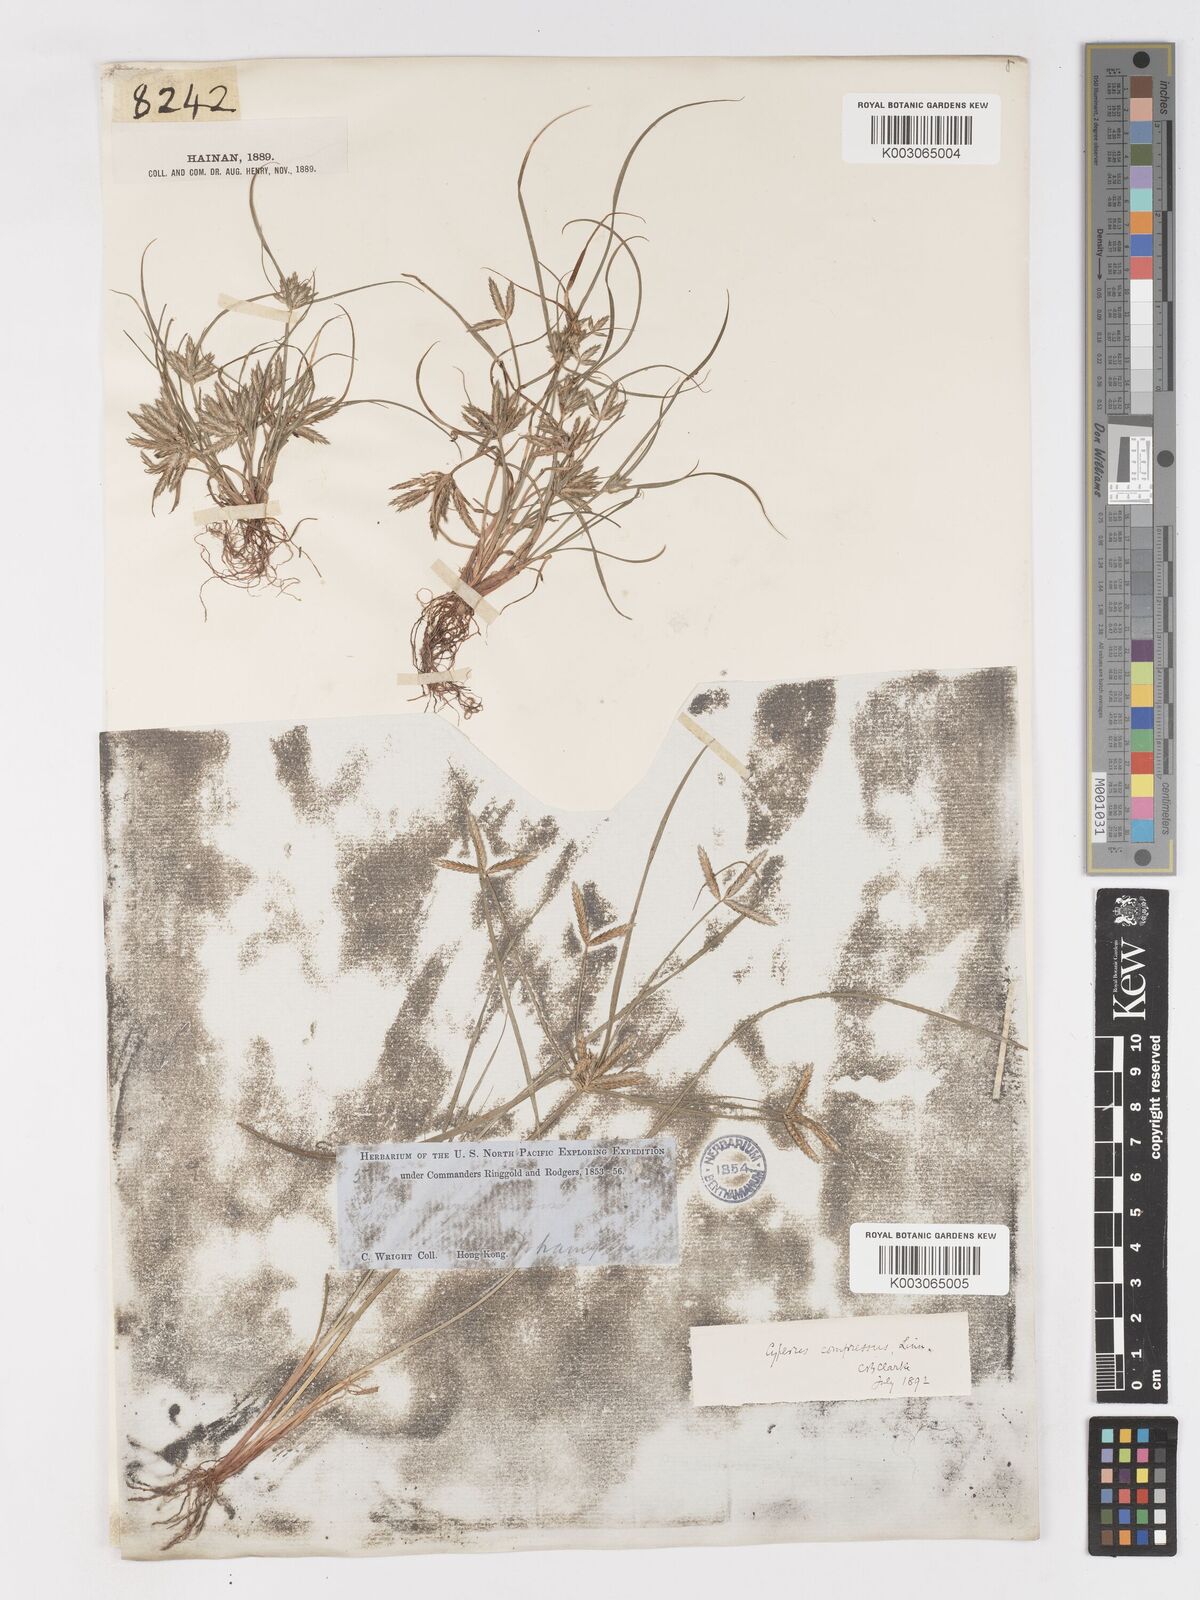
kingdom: Plantae
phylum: Tracheophyta
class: Liliopsida
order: Poales
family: Cyperaceae
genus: Cyperus
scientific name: Cyperus compressus
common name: Poorland flatsedge
